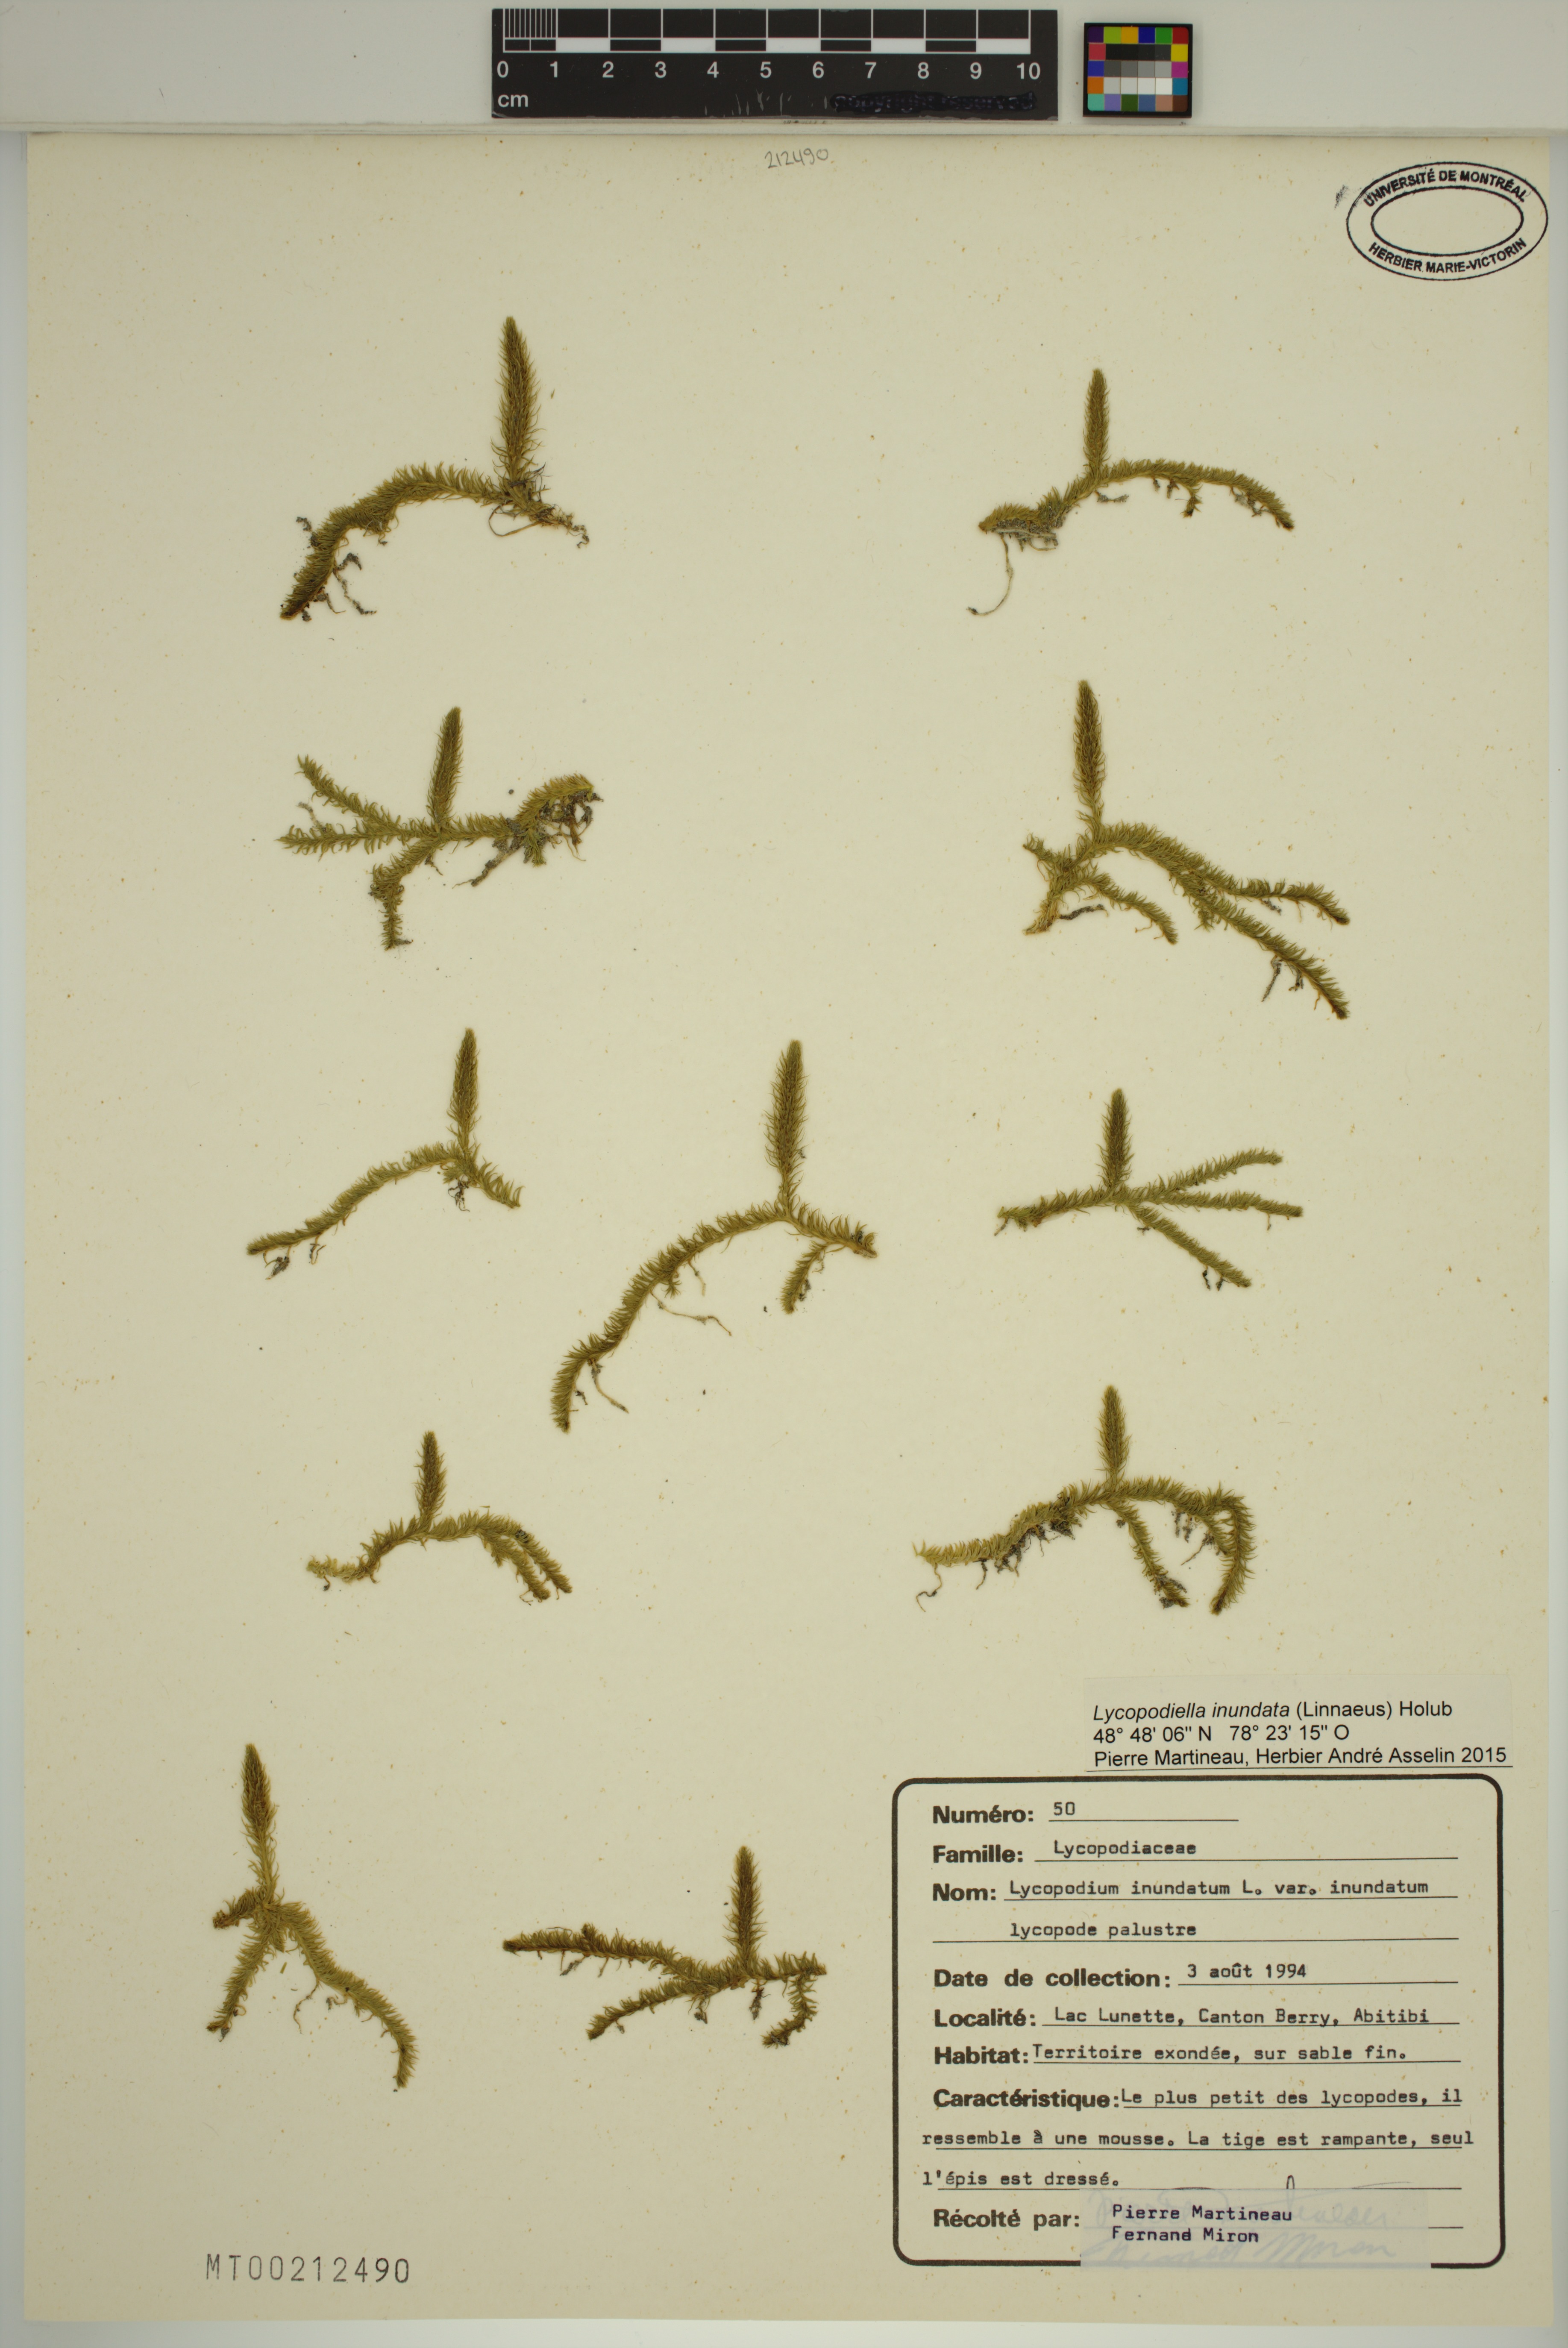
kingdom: Plantae
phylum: Tracheophyta
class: Lycopodiopsida
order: Lycopodiales
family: Lycopodiaceae
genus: Lycopodiella
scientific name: Lycopodiella inundata
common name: Marsh clubmoss
